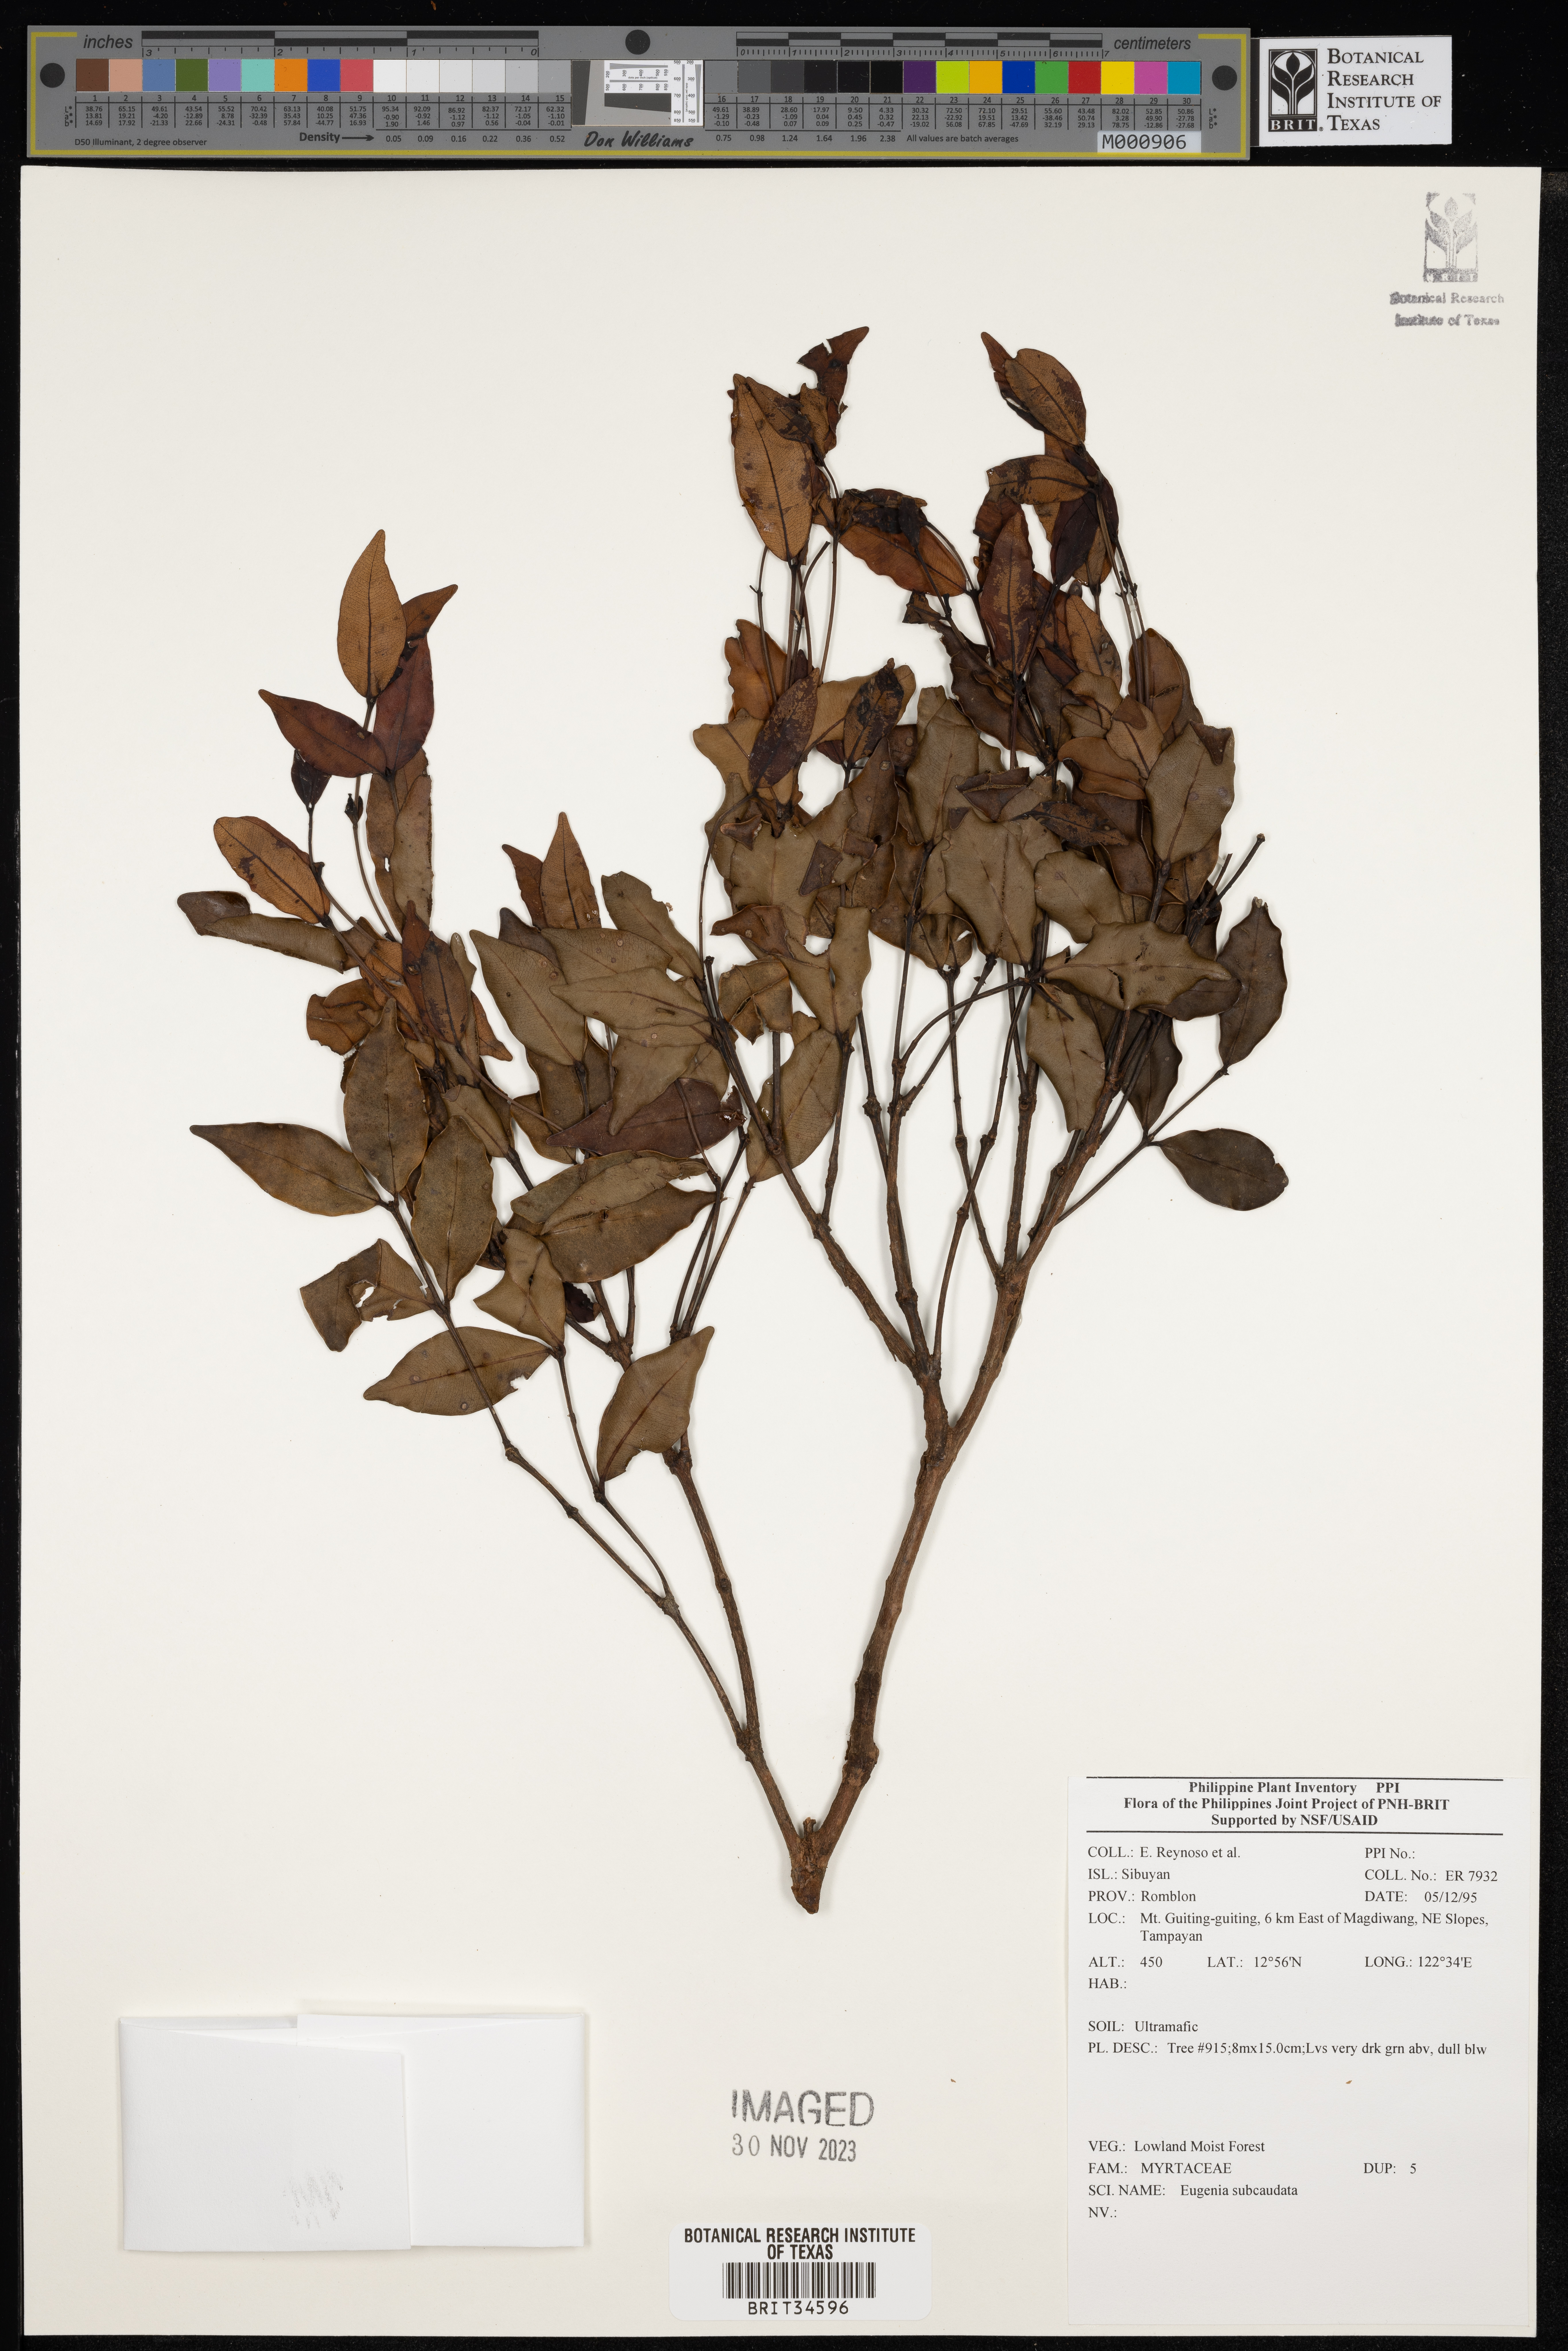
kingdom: Plantae
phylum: Tracheophyta
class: Magnoliopsida
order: Myrtales
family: Myrtaceae
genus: Eugenia
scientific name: Eugenia
